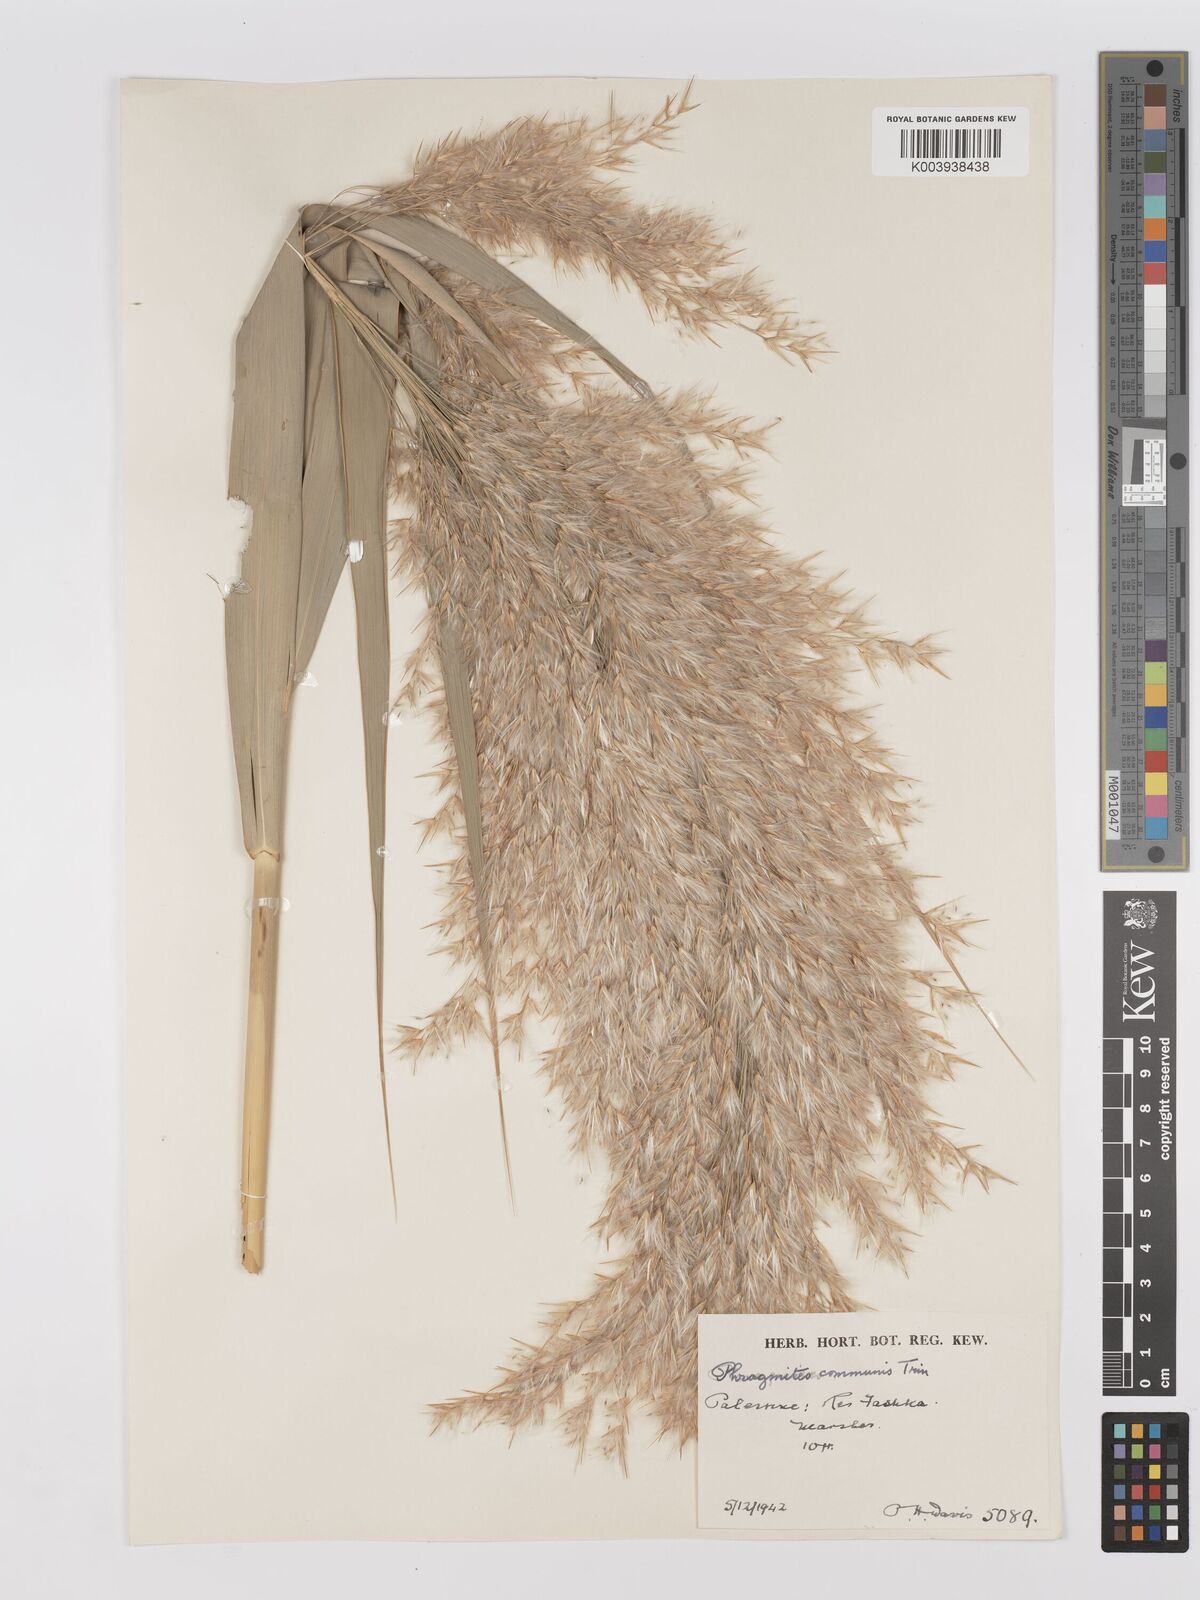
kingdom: Plantae
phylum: Tracheophyta
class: Liliopsida
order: Poales
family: Poaceae
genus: Phragmites
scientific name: Phragmites australis
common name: Common reed
